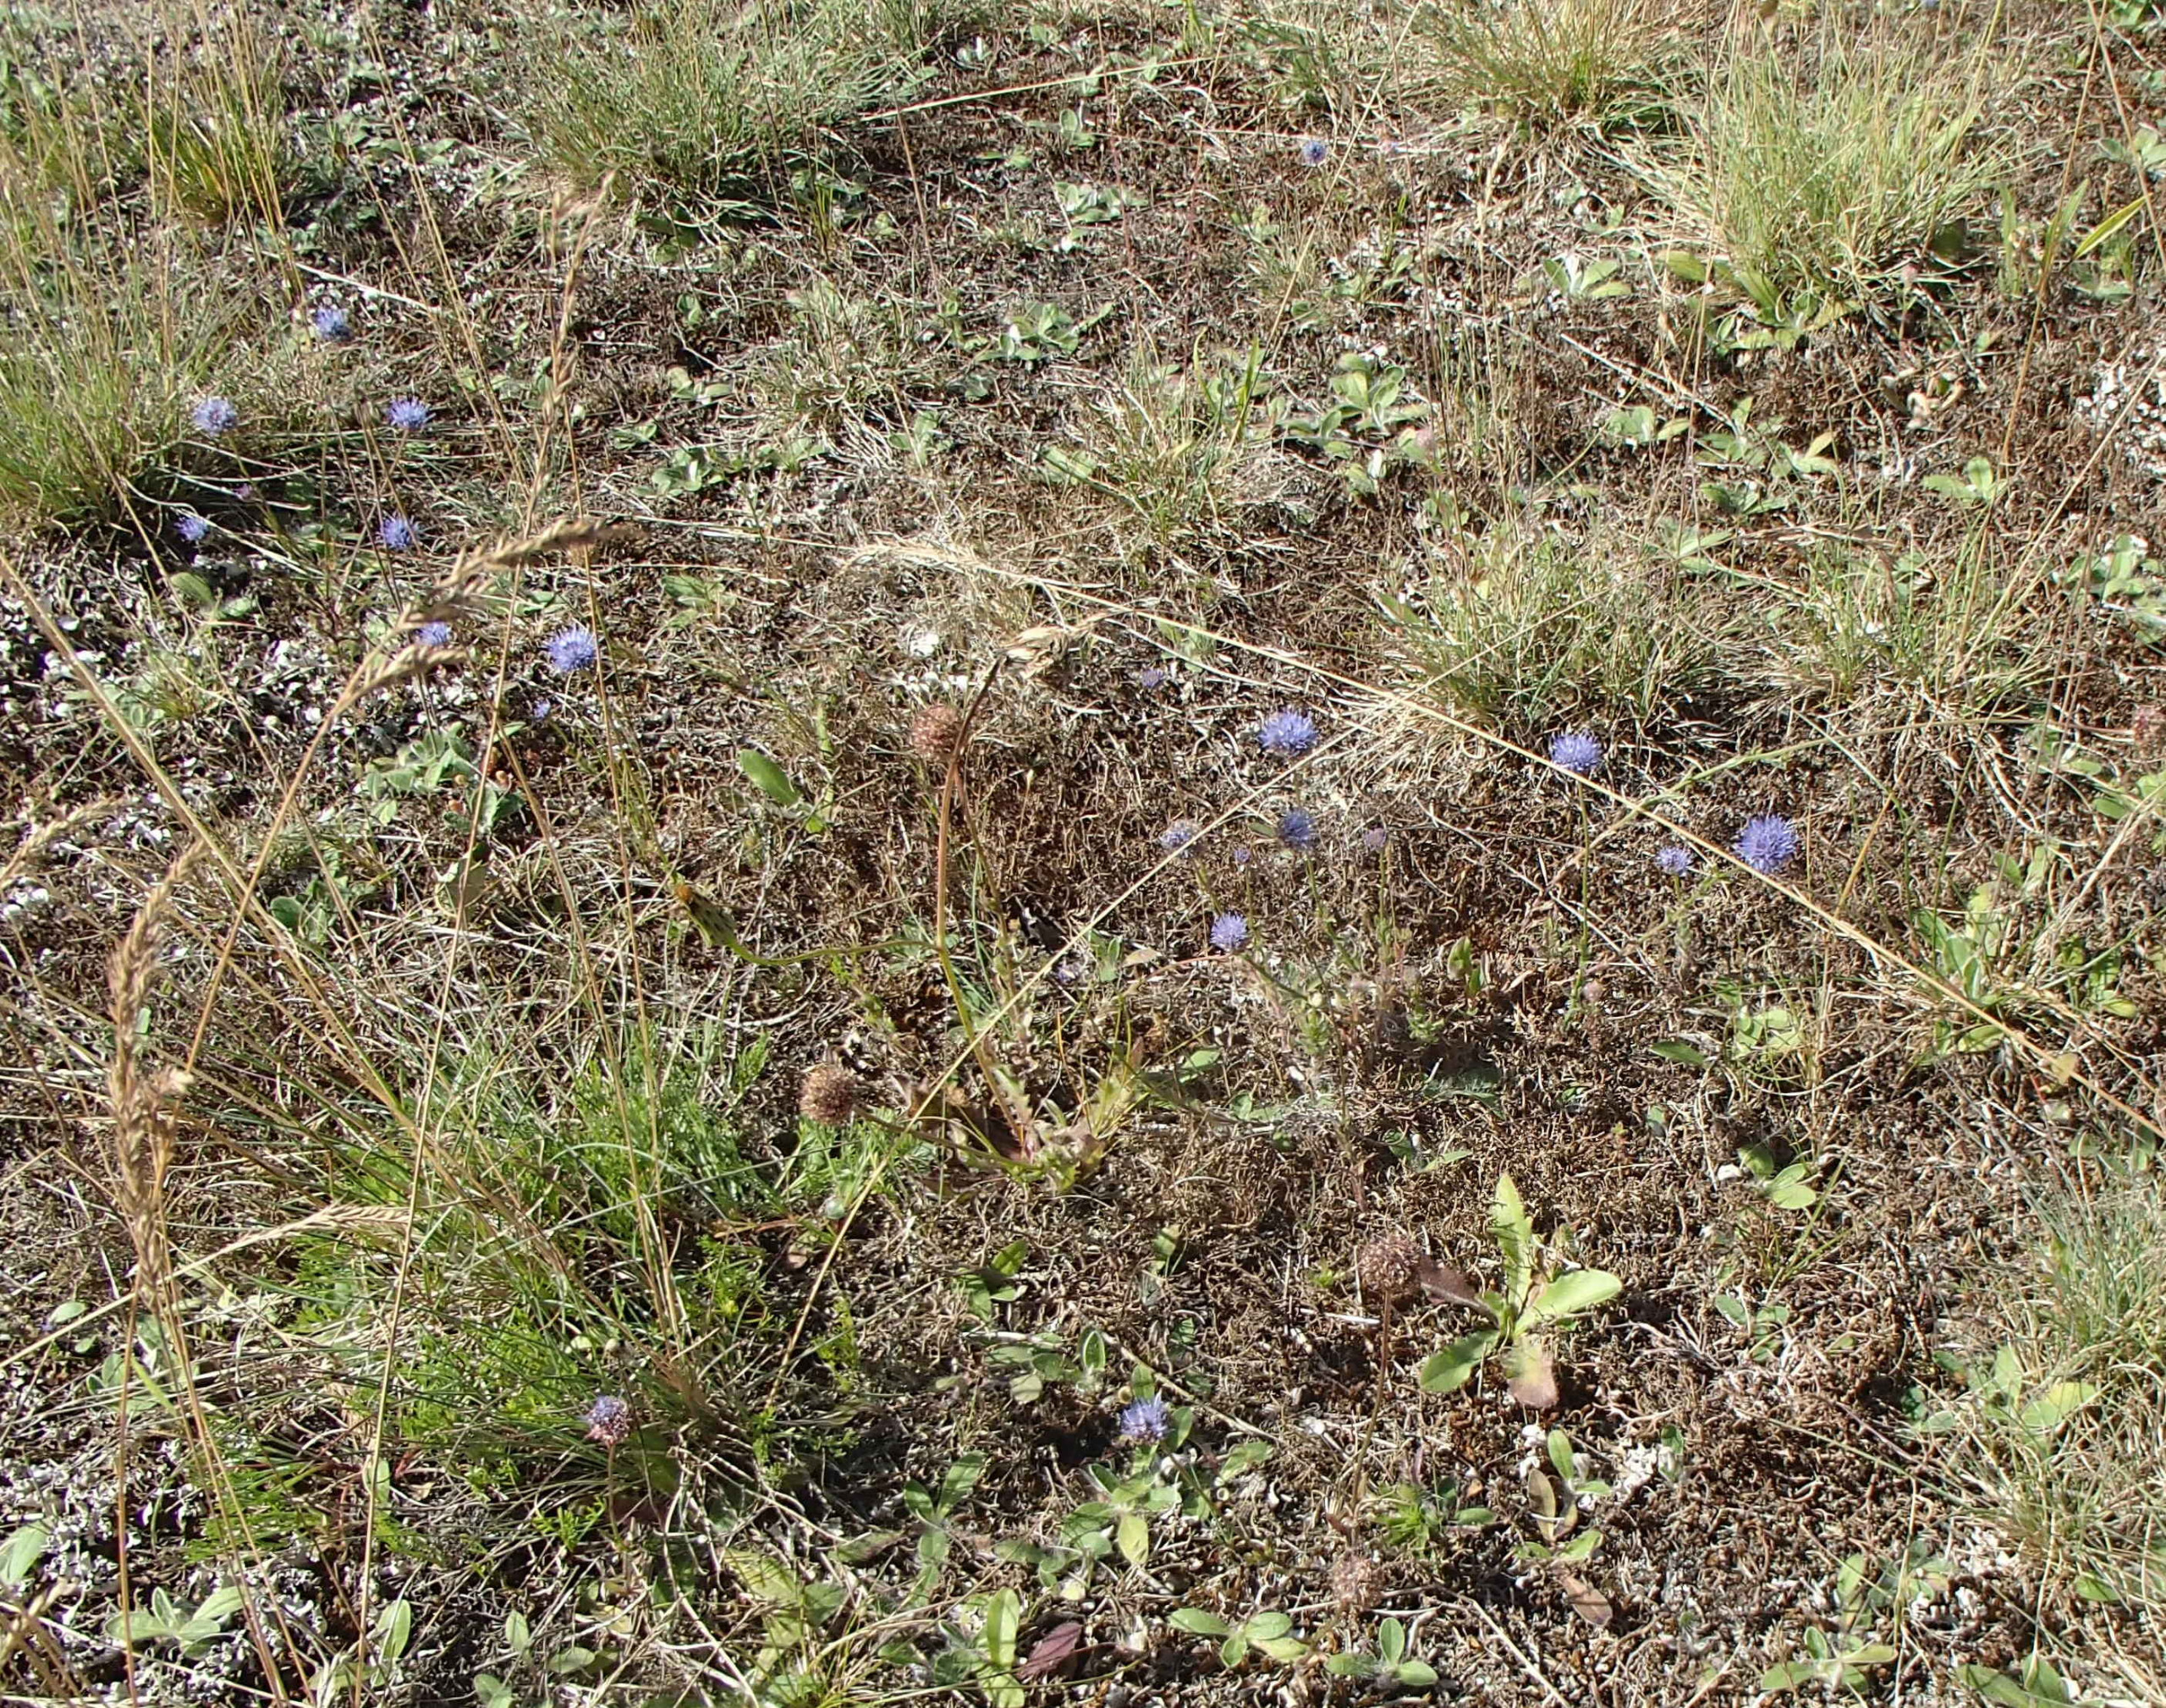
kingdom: Plantae
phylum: Tracheophyta
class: Magnoliopsida
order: Asterales
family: Campanulaceae
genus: Jasione
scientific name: Jasione montana
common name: Blåmunke
